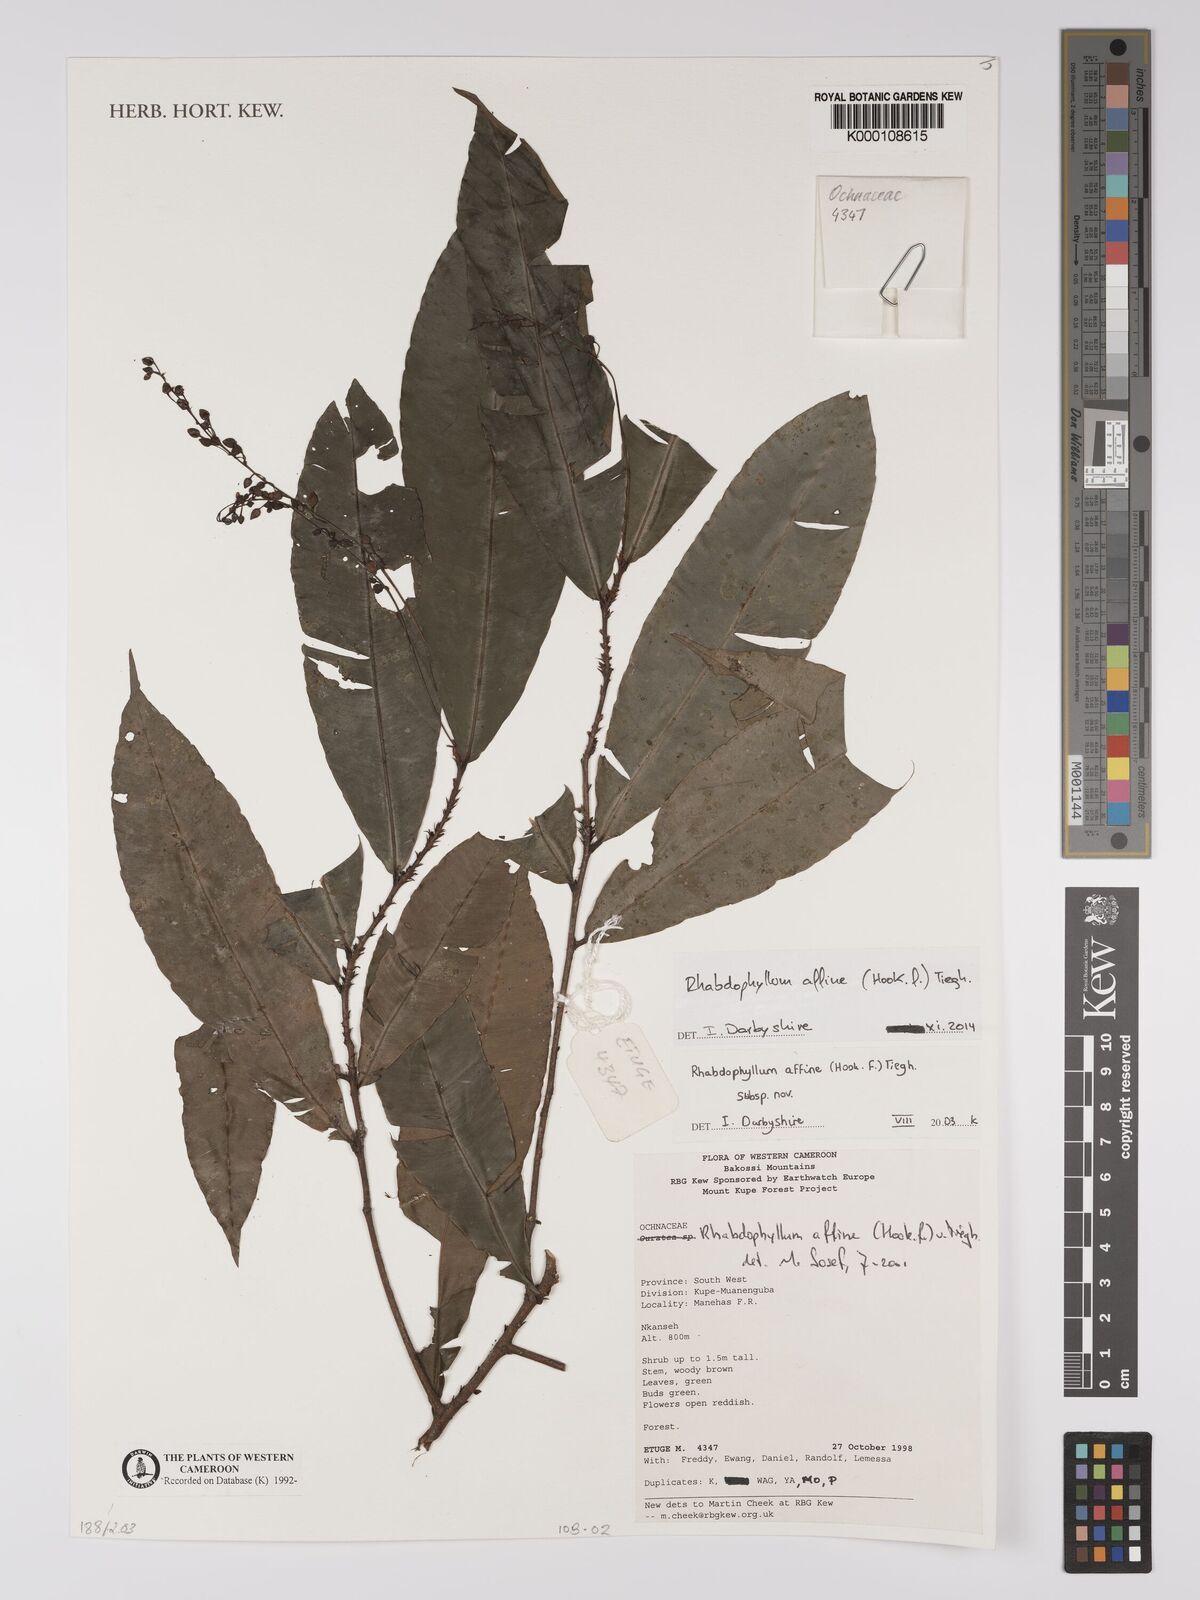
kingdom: Plantae
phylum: Tracheophyta
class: Magnoliopsida
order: Malpighiales
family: Ochnaceae
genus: Rhabdophyllum
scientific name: Rhabdophyllum affine
